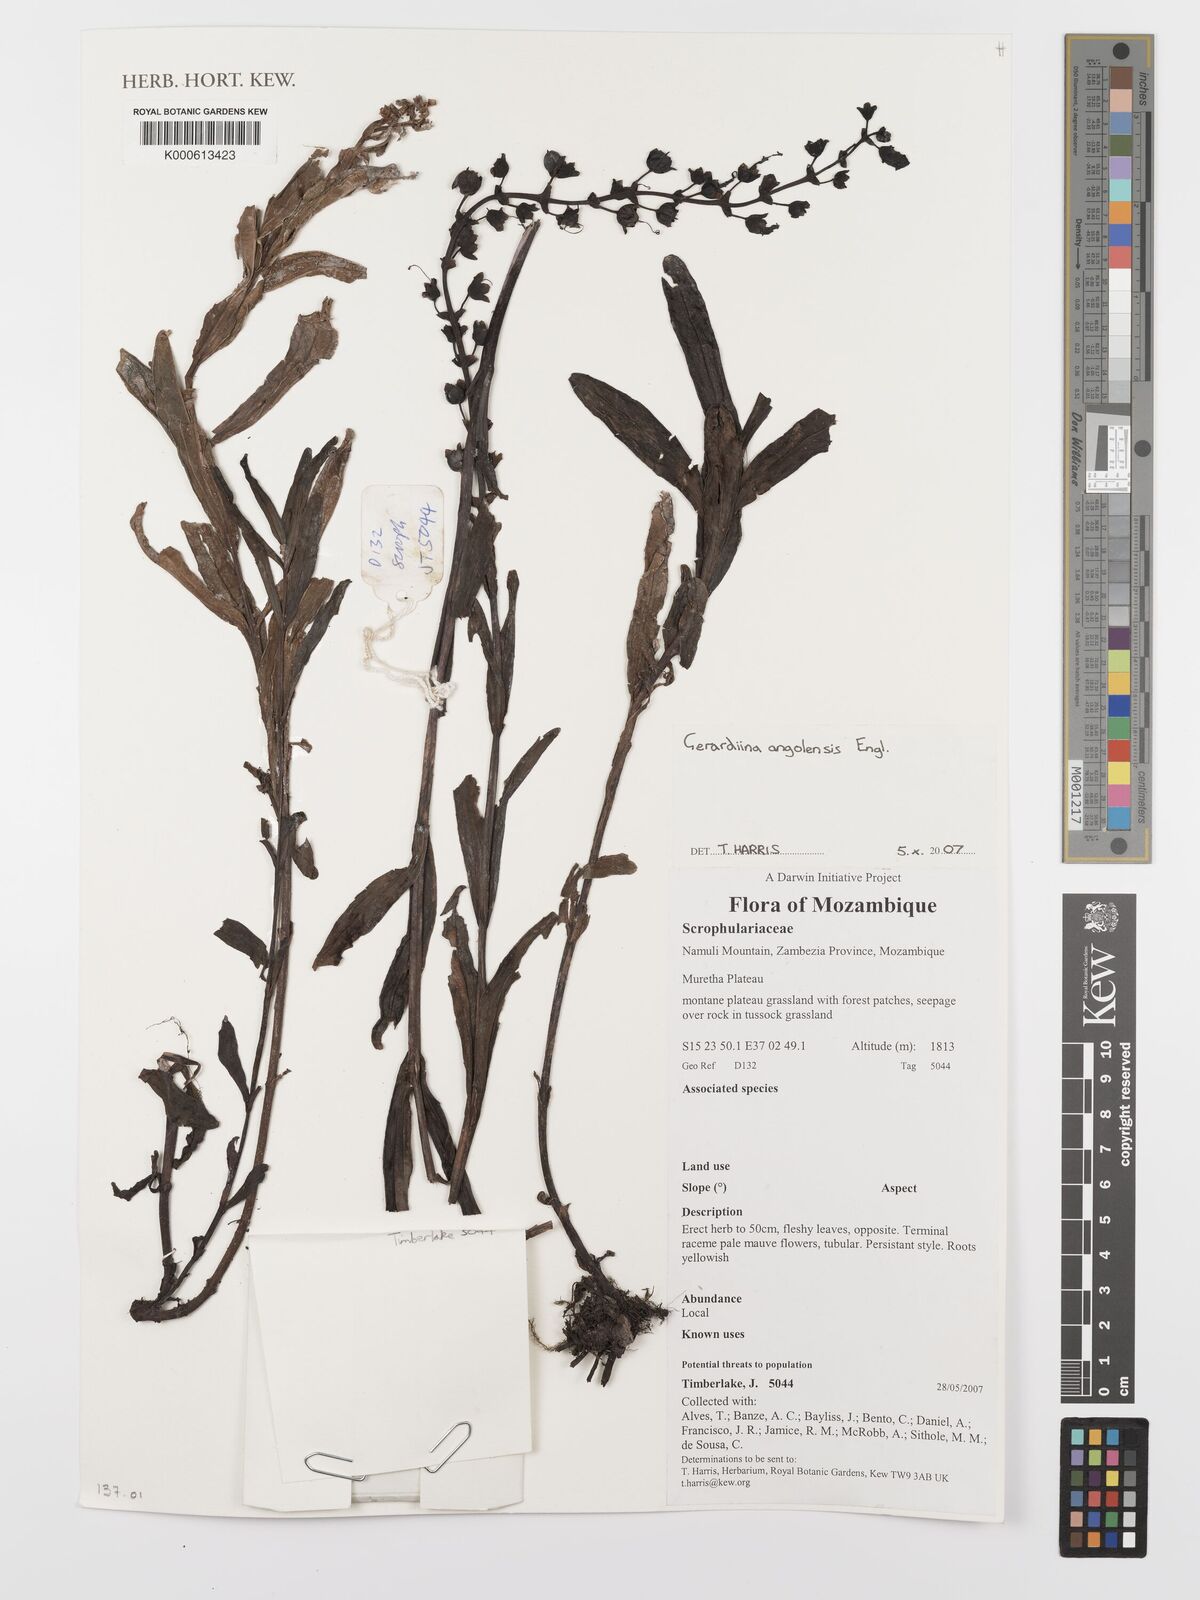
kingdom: Plantae
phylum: Tracheophyta
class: Magnoliopsida
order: Lamiales
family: Orobanchaceae
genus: Gerardiina
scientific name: Gerardiina angolensis
